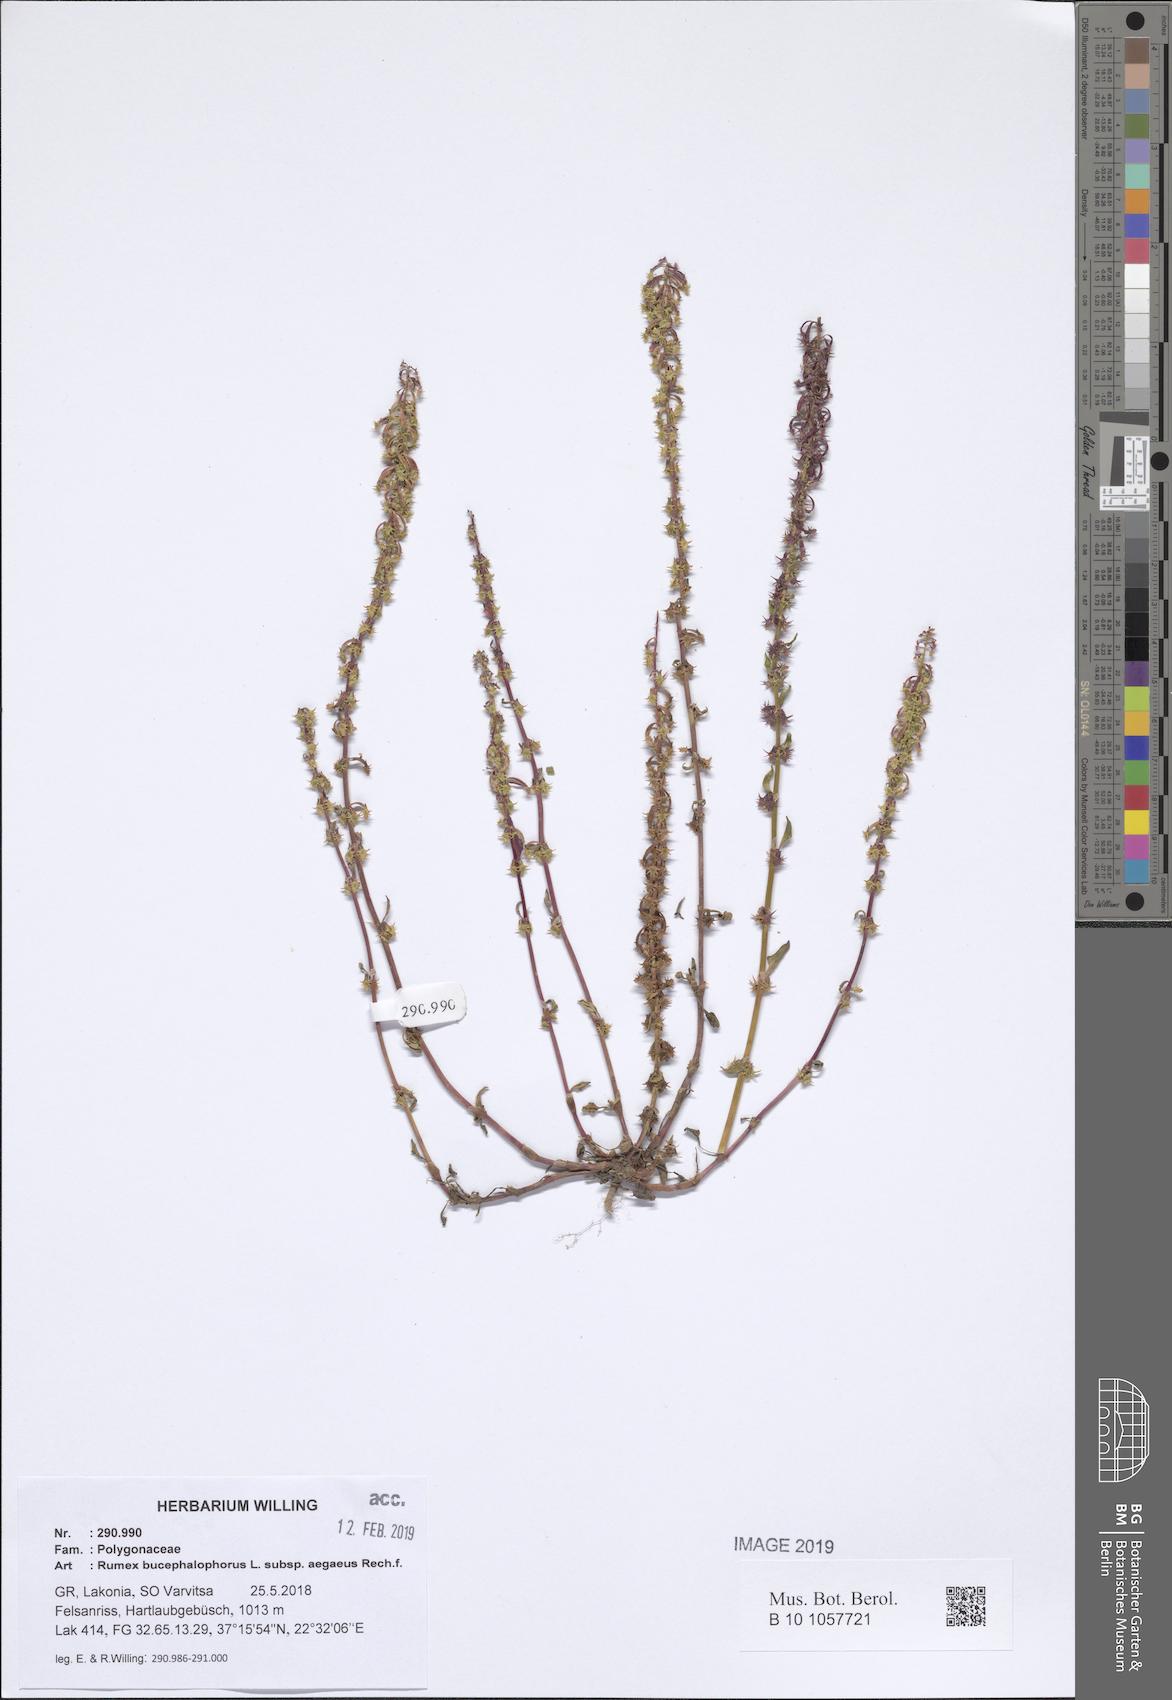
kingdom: Plantae
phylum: Tracheophyta
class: Magnoliopsida
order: Caryophyllales
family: Polygonaceae
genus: Rumex
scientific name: Rumex bucephalophorus
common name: Red dock
